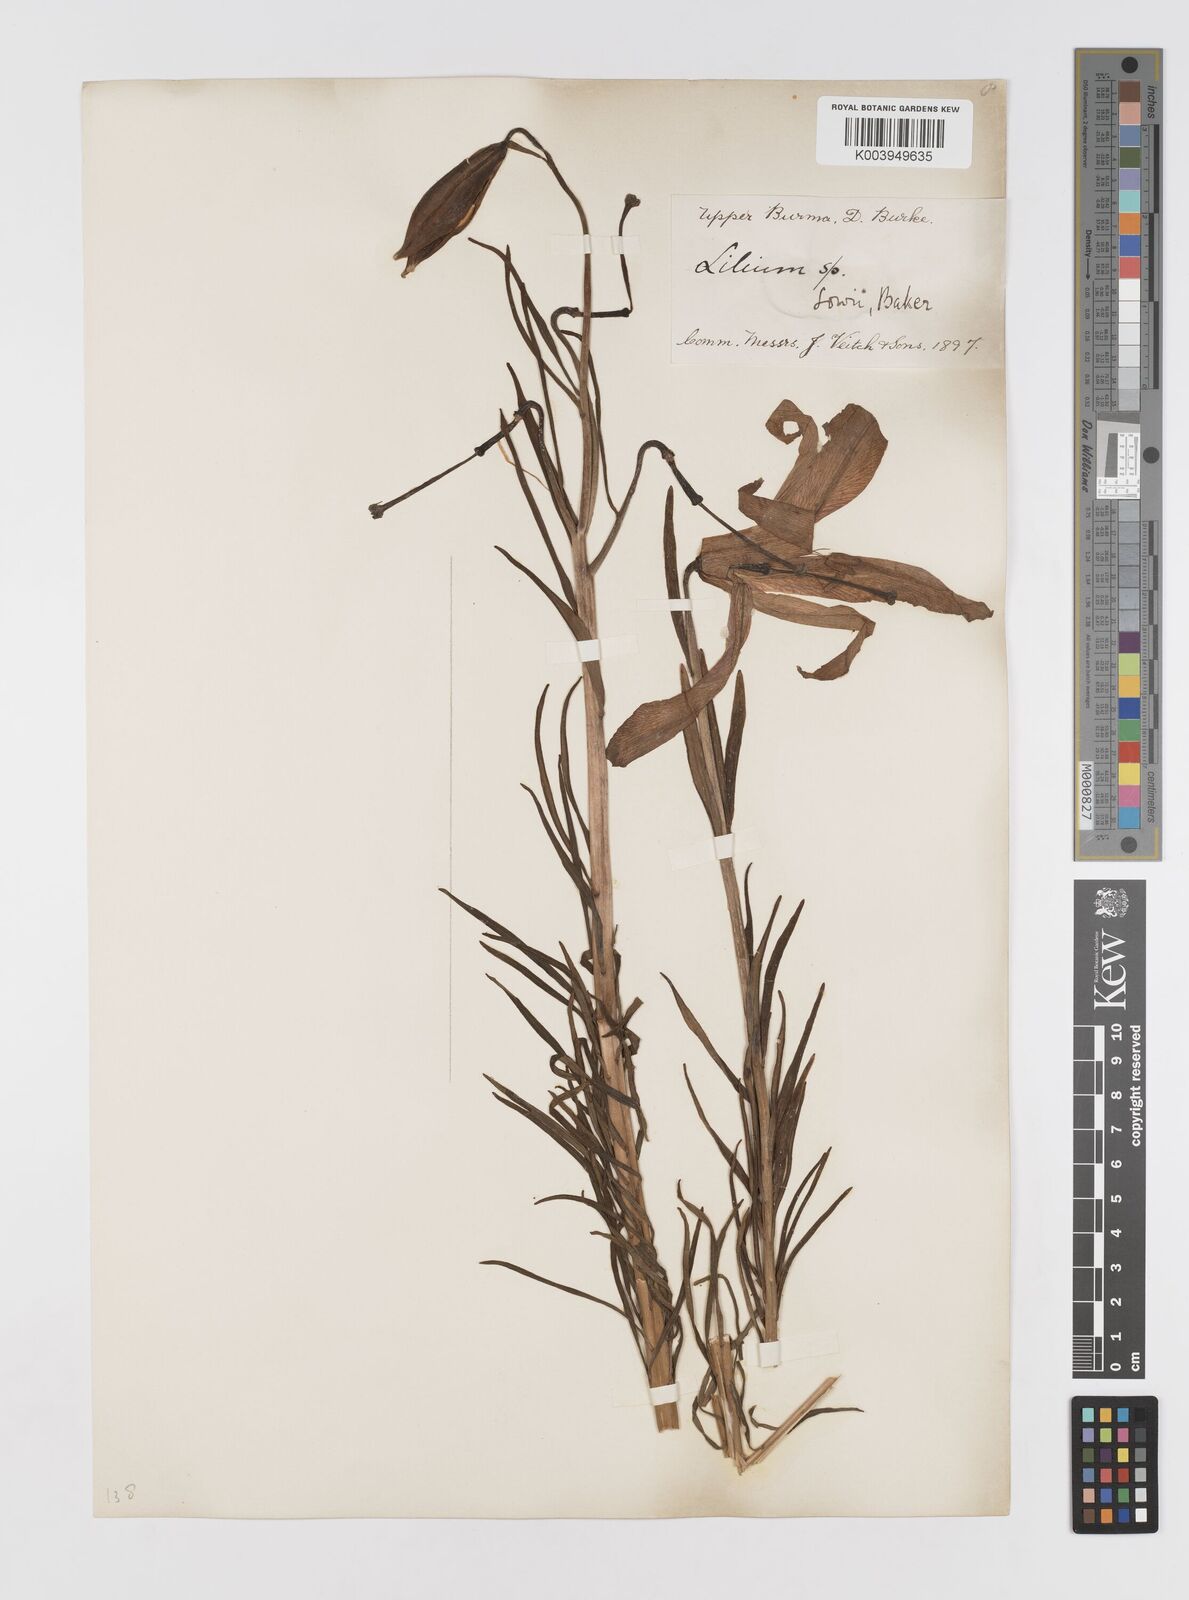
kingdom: Plantae
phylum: Tracheophyta
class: Liliopsida
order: Liliales
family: Liliaceae
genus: Lilium
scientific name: Lilium bakerianum
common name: Baker's lily
